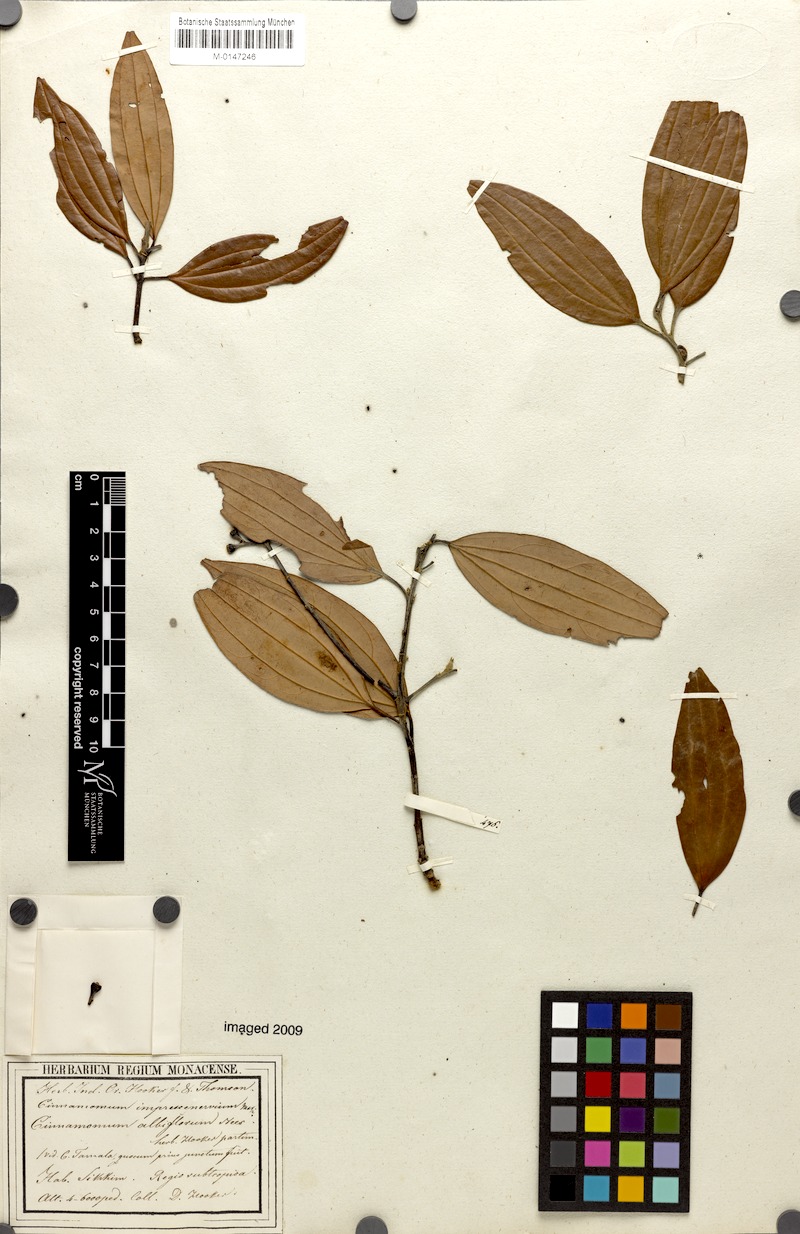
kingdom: Plantae
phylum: Tracheophyta
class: Magnoliopsida
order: Laurales
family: Lauraceae
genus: Cinnamomum
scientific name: Cinnamomum impressinervium
